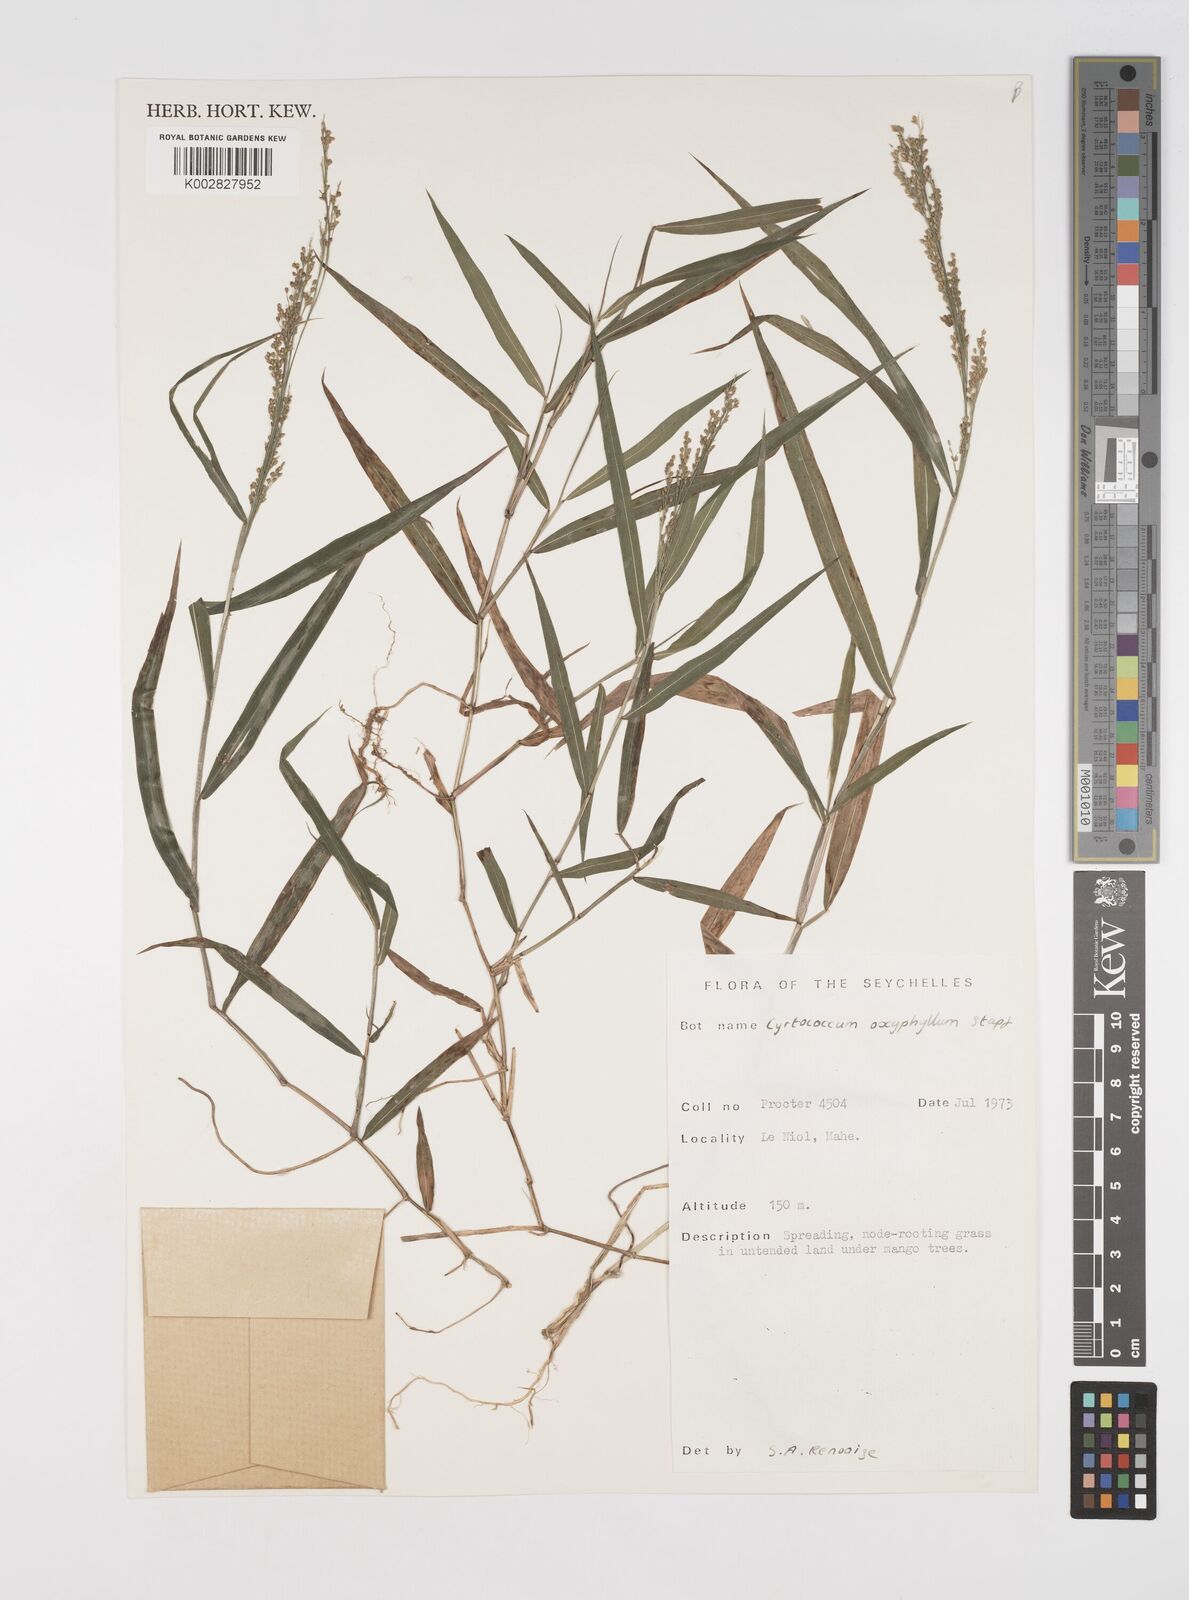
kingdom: Plantae
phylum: Tracheophyta
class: Liliopsida
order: Poales
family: Poaceae
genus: Cyrtococcum
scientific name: Cyrtococcum oxyphyllum
